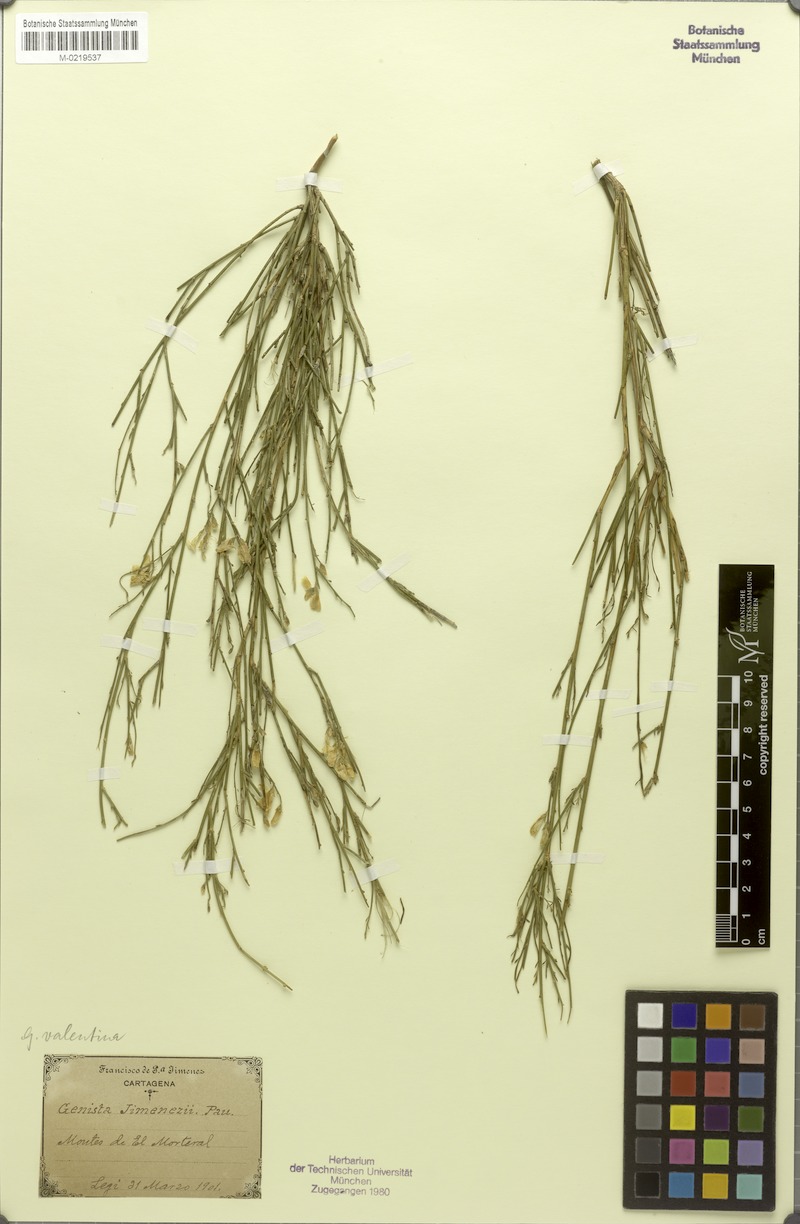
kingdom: Plantae
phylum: Tracheophyta
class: Magnoliopsida
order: Fabales
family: Fabaceae
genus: Genista
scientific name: Genista cinerea
